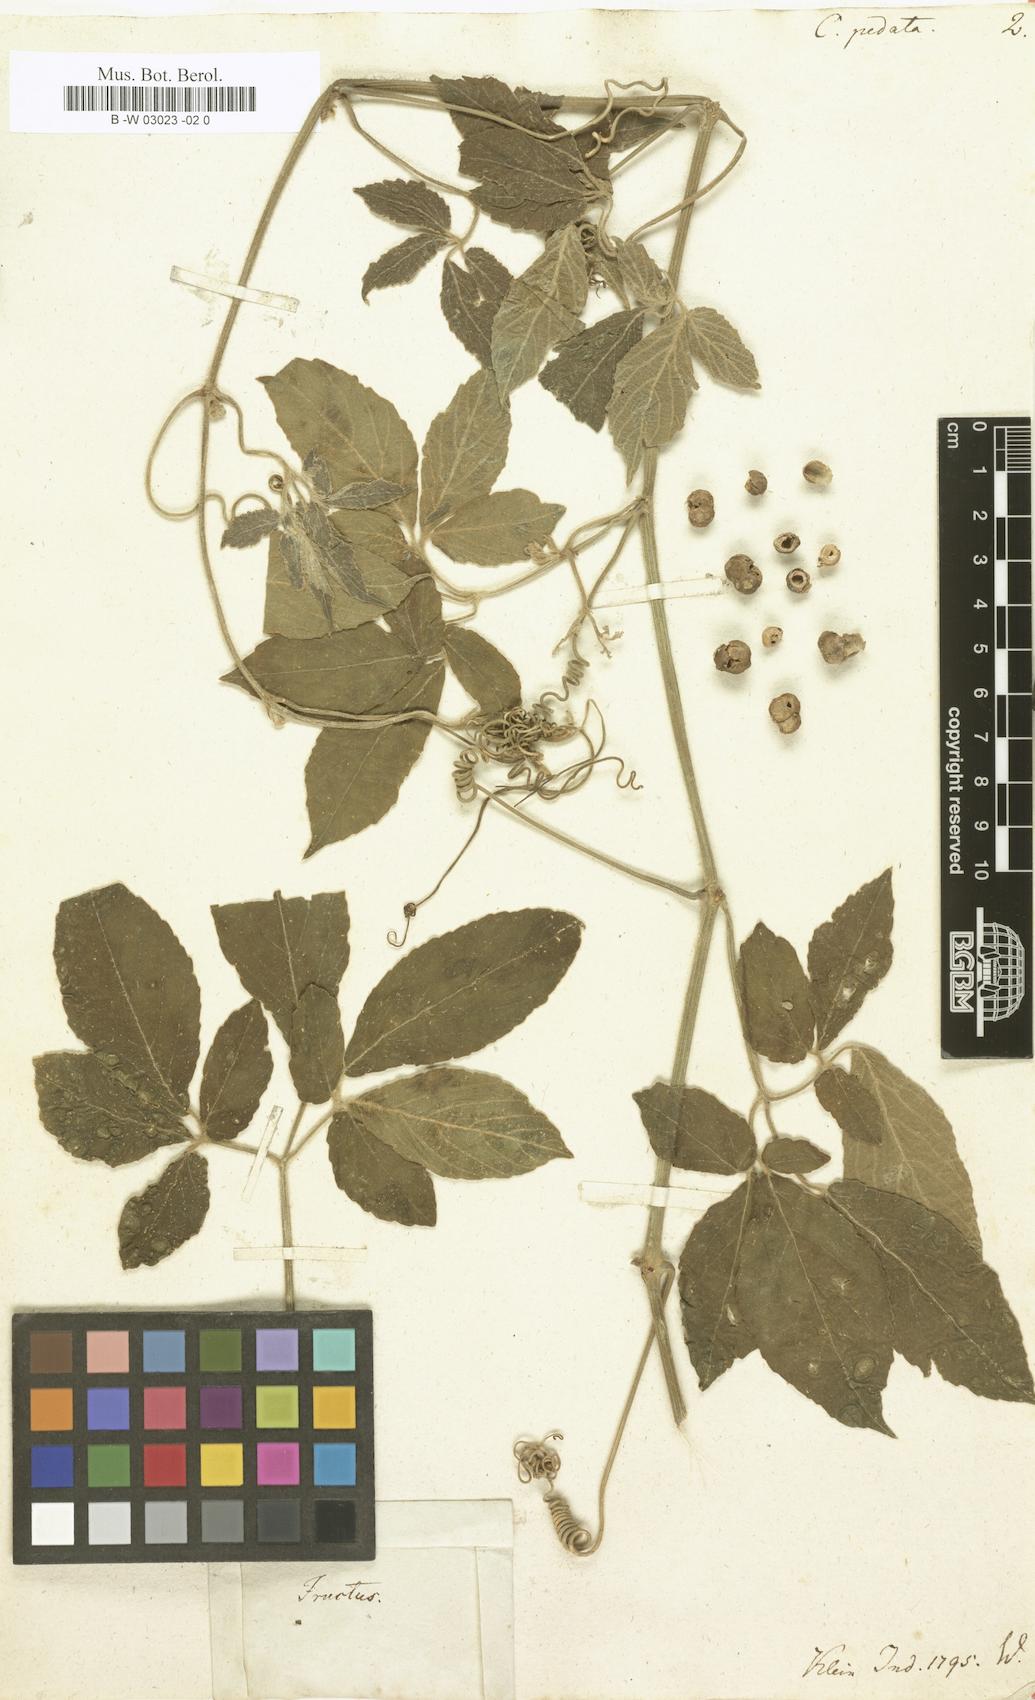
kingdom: Plantae
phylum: Tracheophyta
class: Magnoliopsida
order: Vitales
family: Vitaceae
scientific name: Vitaceae
